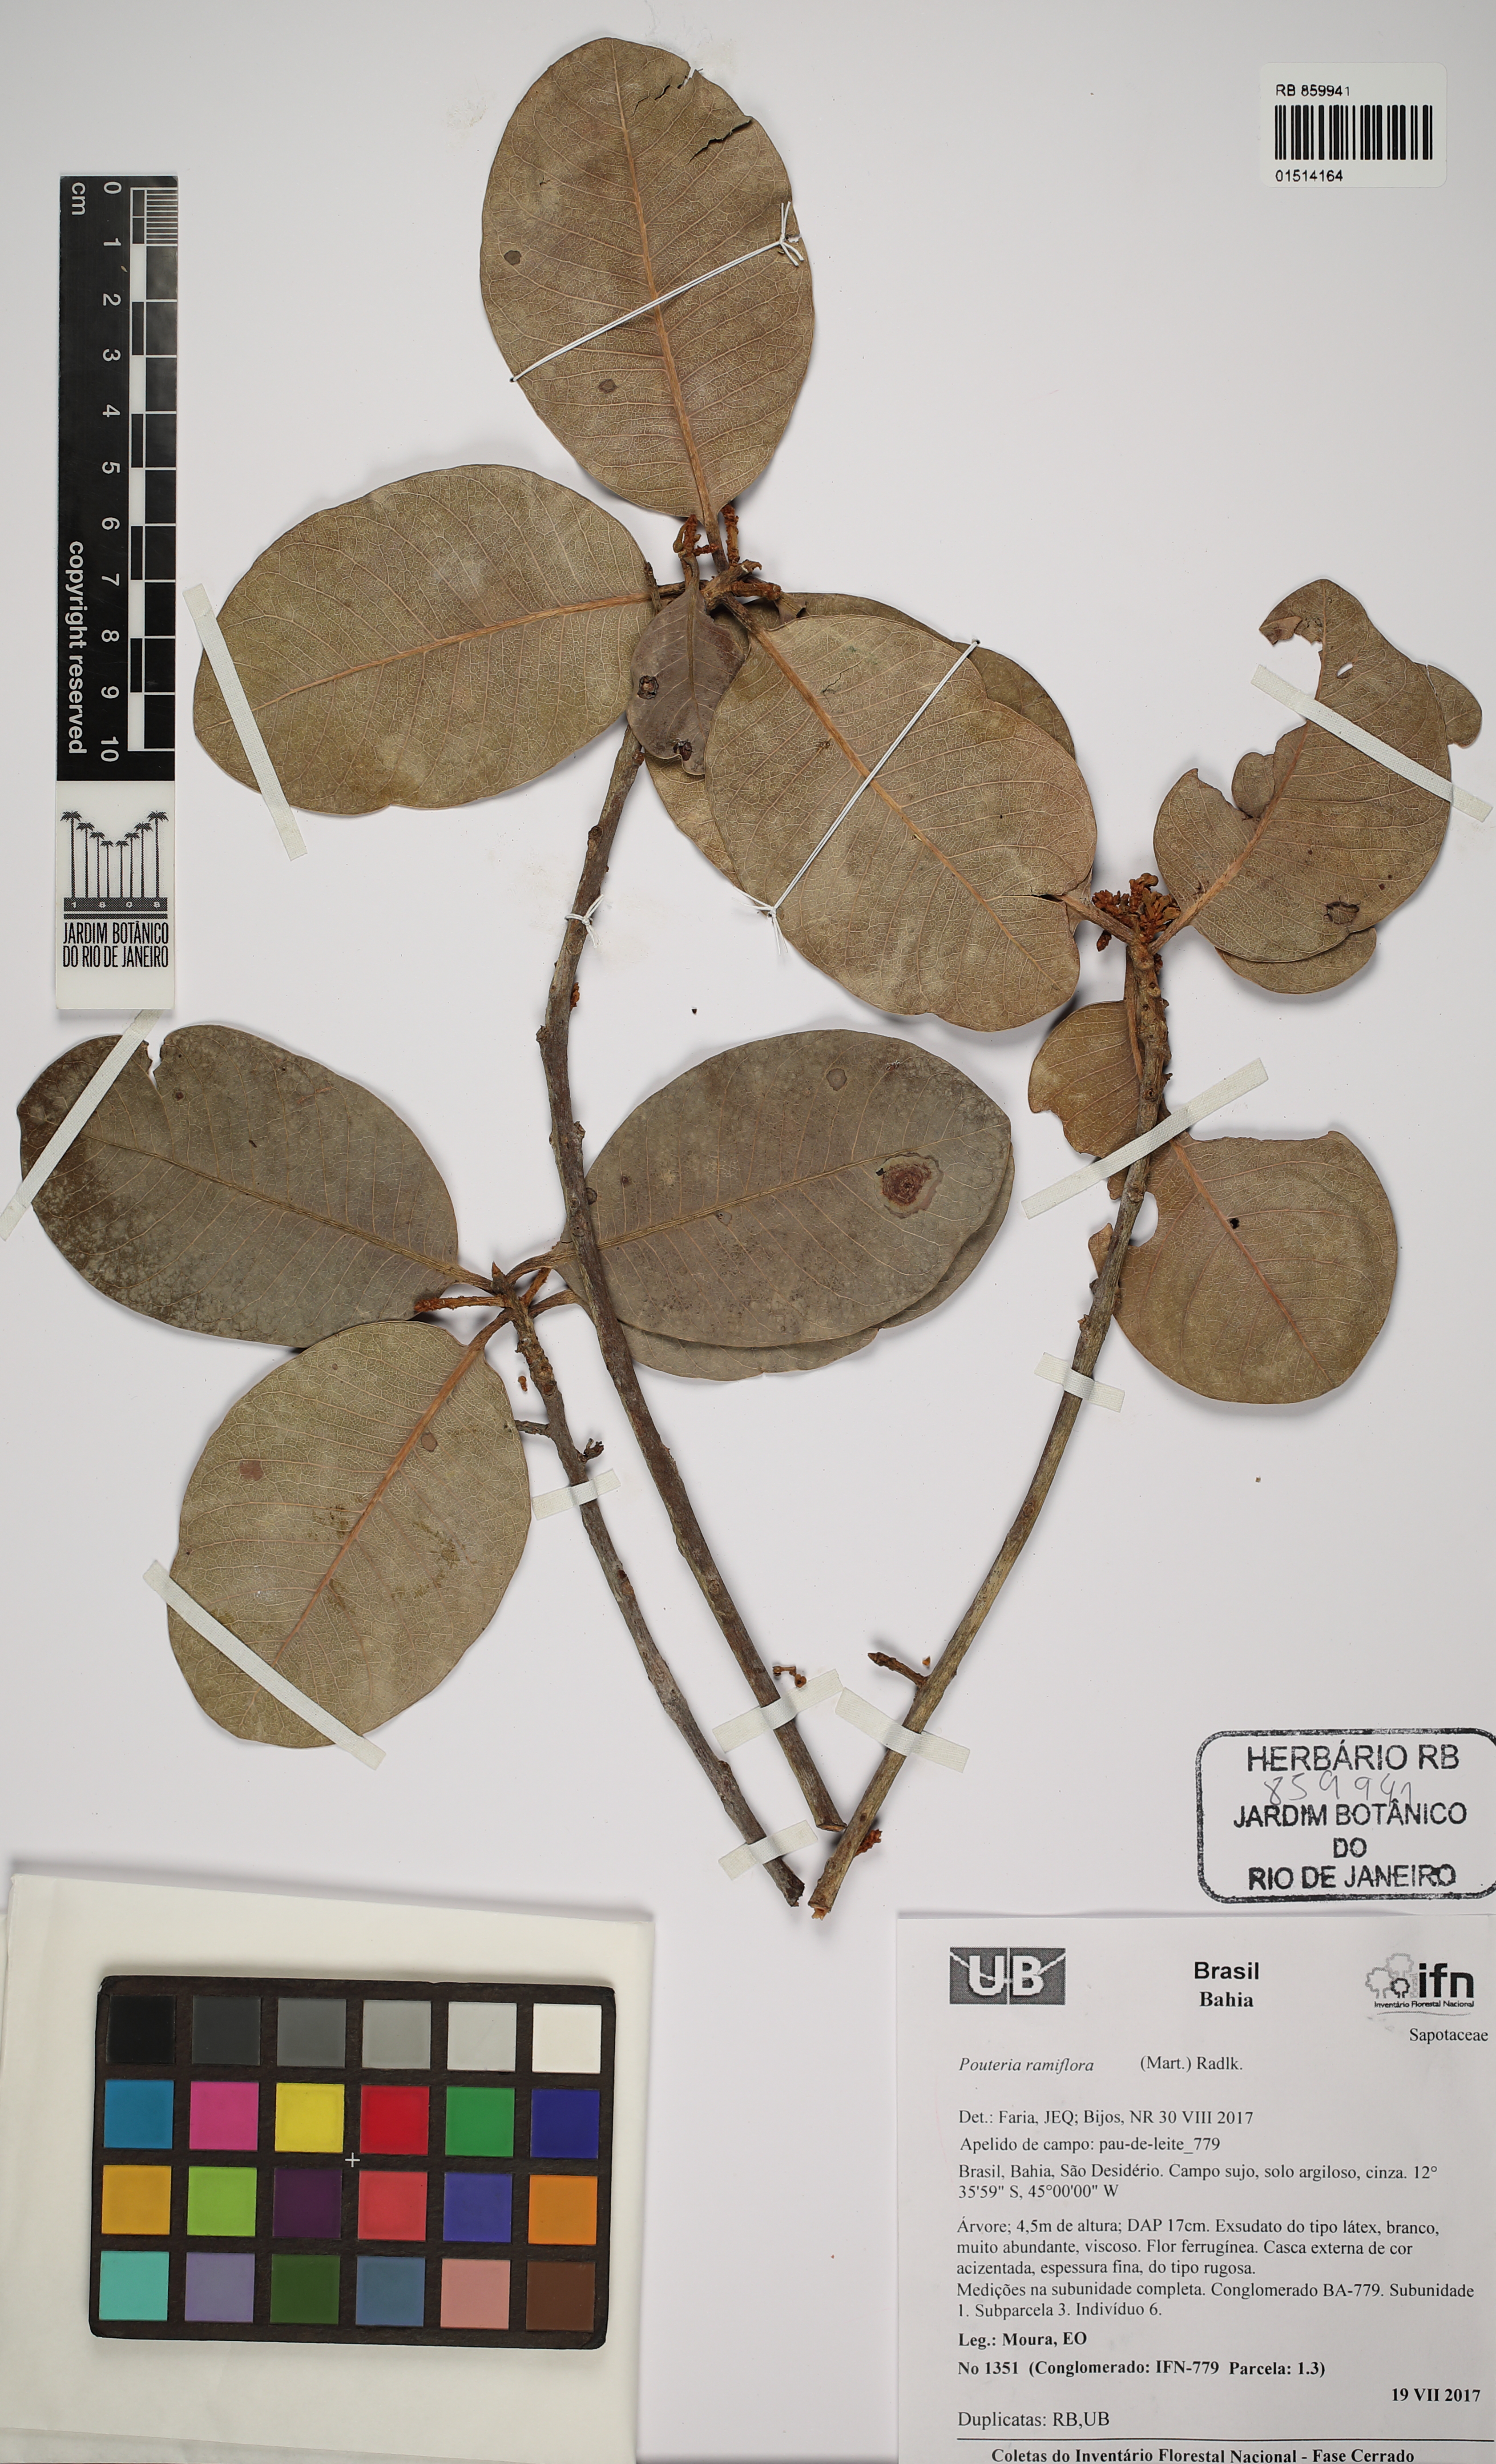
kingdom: Plantae
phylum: Tracheophyta
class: Magnoliopsida
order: Ericales
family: Sapotaceae
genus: Pouteria
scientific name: Pouteria ramiflora
